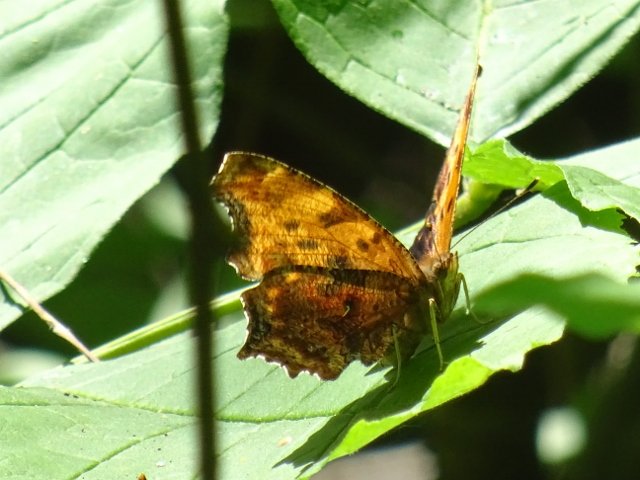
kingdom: Animalia
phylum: Arthropoda
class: Insecta
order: Lepidoptera
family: Nymphalidae
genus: Polygonia
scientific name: Polygonia progne
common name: Gray Comma
